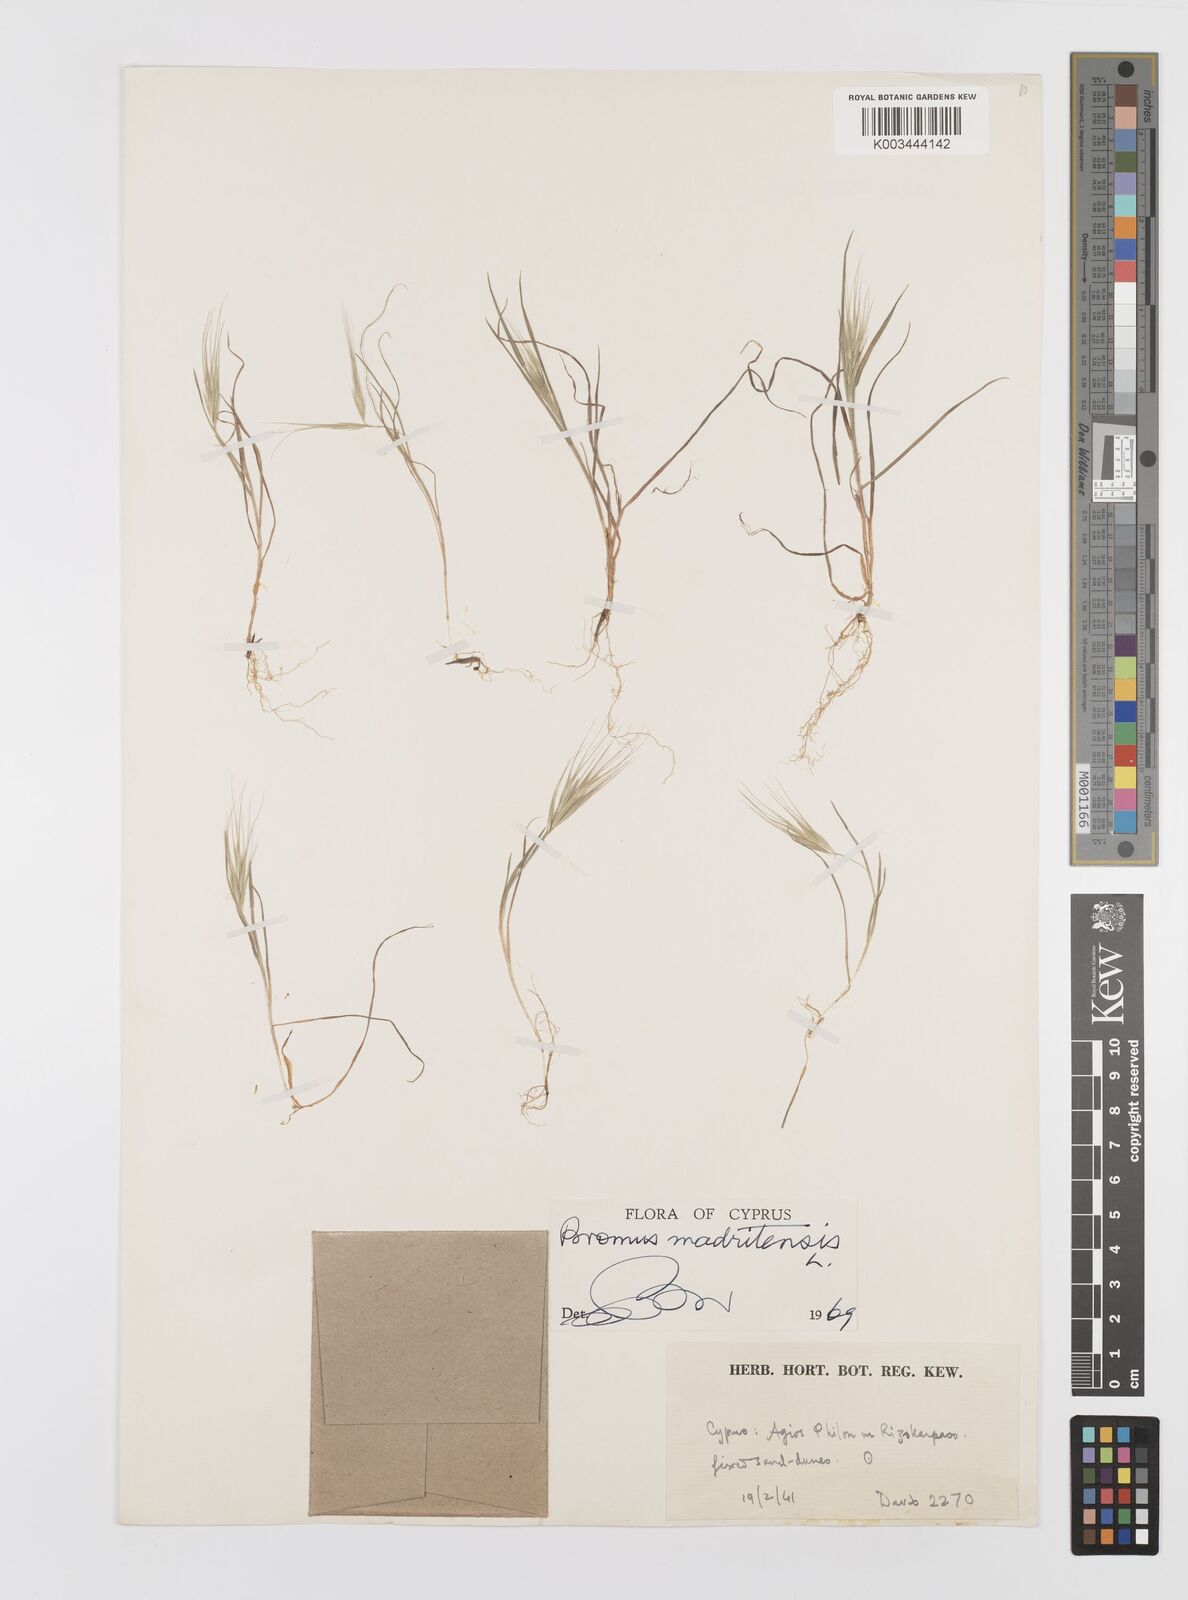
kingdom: Plantae
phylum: Tracheophyta
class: Liliopsida
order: Poales
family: Poaceae
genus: Bromus
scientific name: Bromus madritensis
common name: Compact brome
